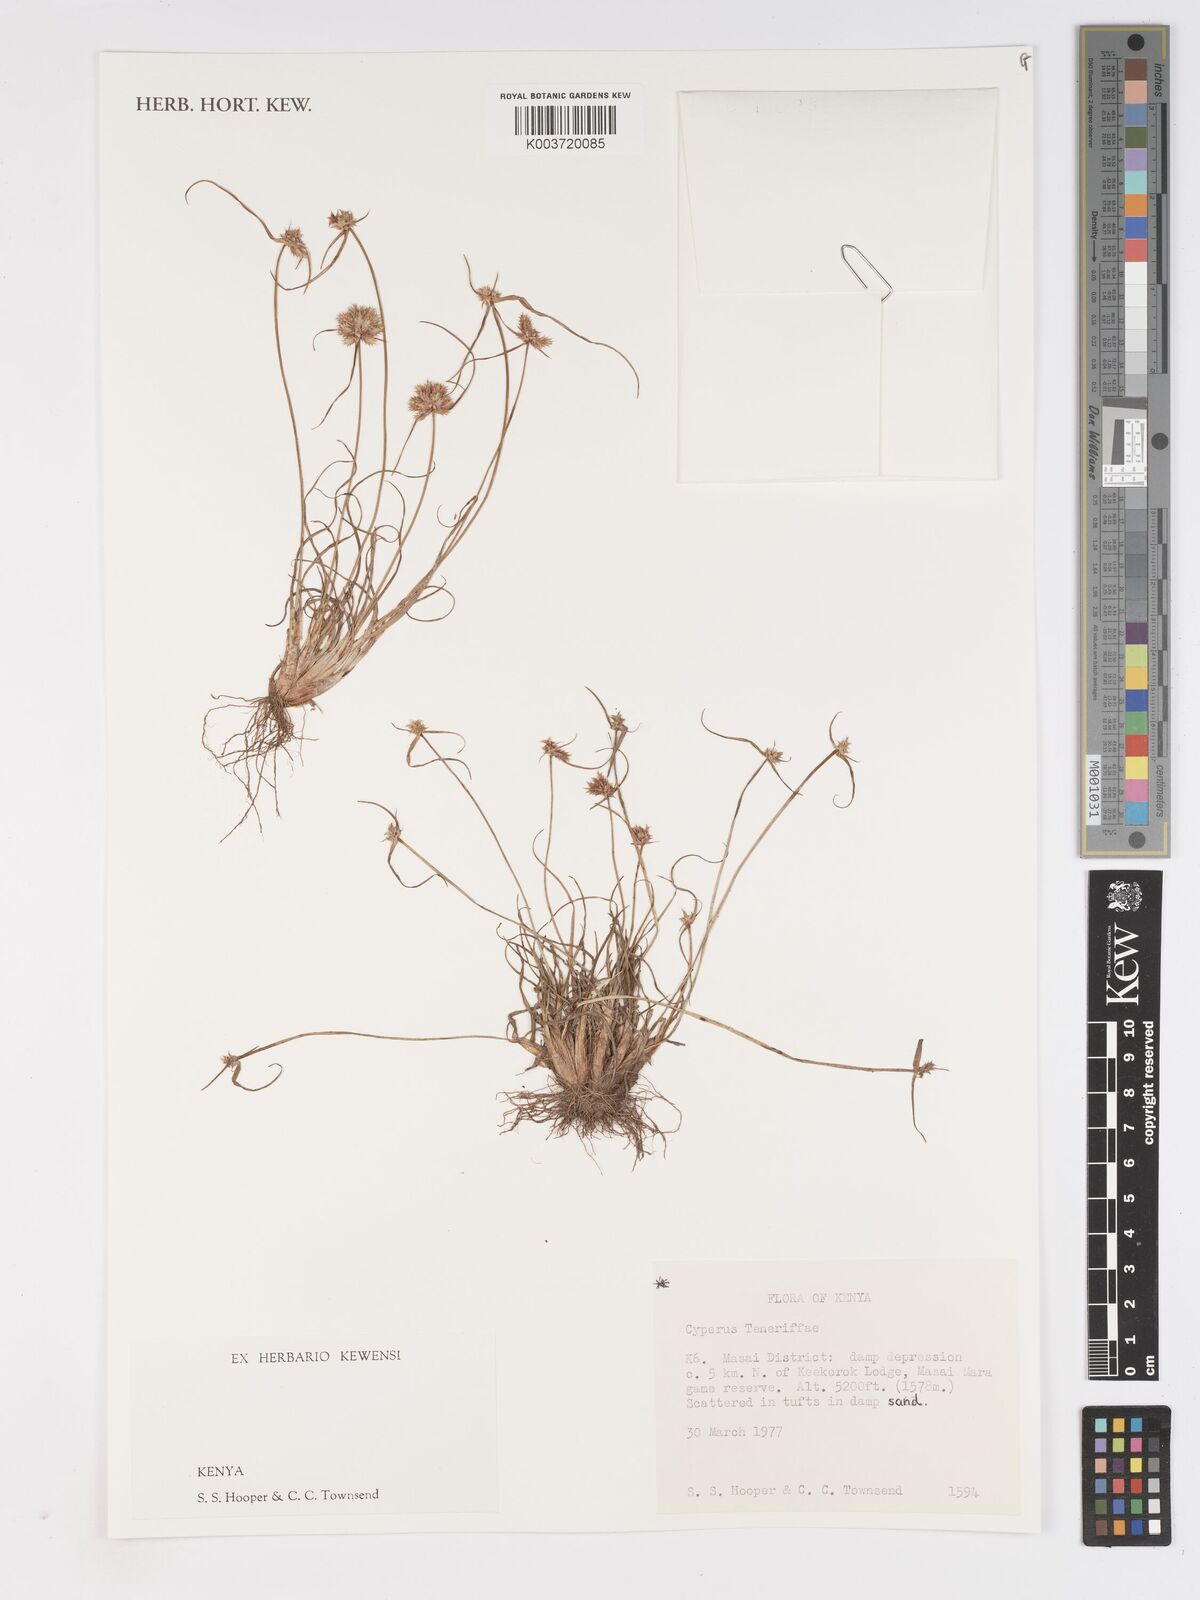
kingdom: Plantae
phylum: Tracheophyta
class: Liliopsida
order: Poales
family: Cyperaceae
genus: Cyperus
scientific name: Cyperus rubicundus
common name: Coco-grass
